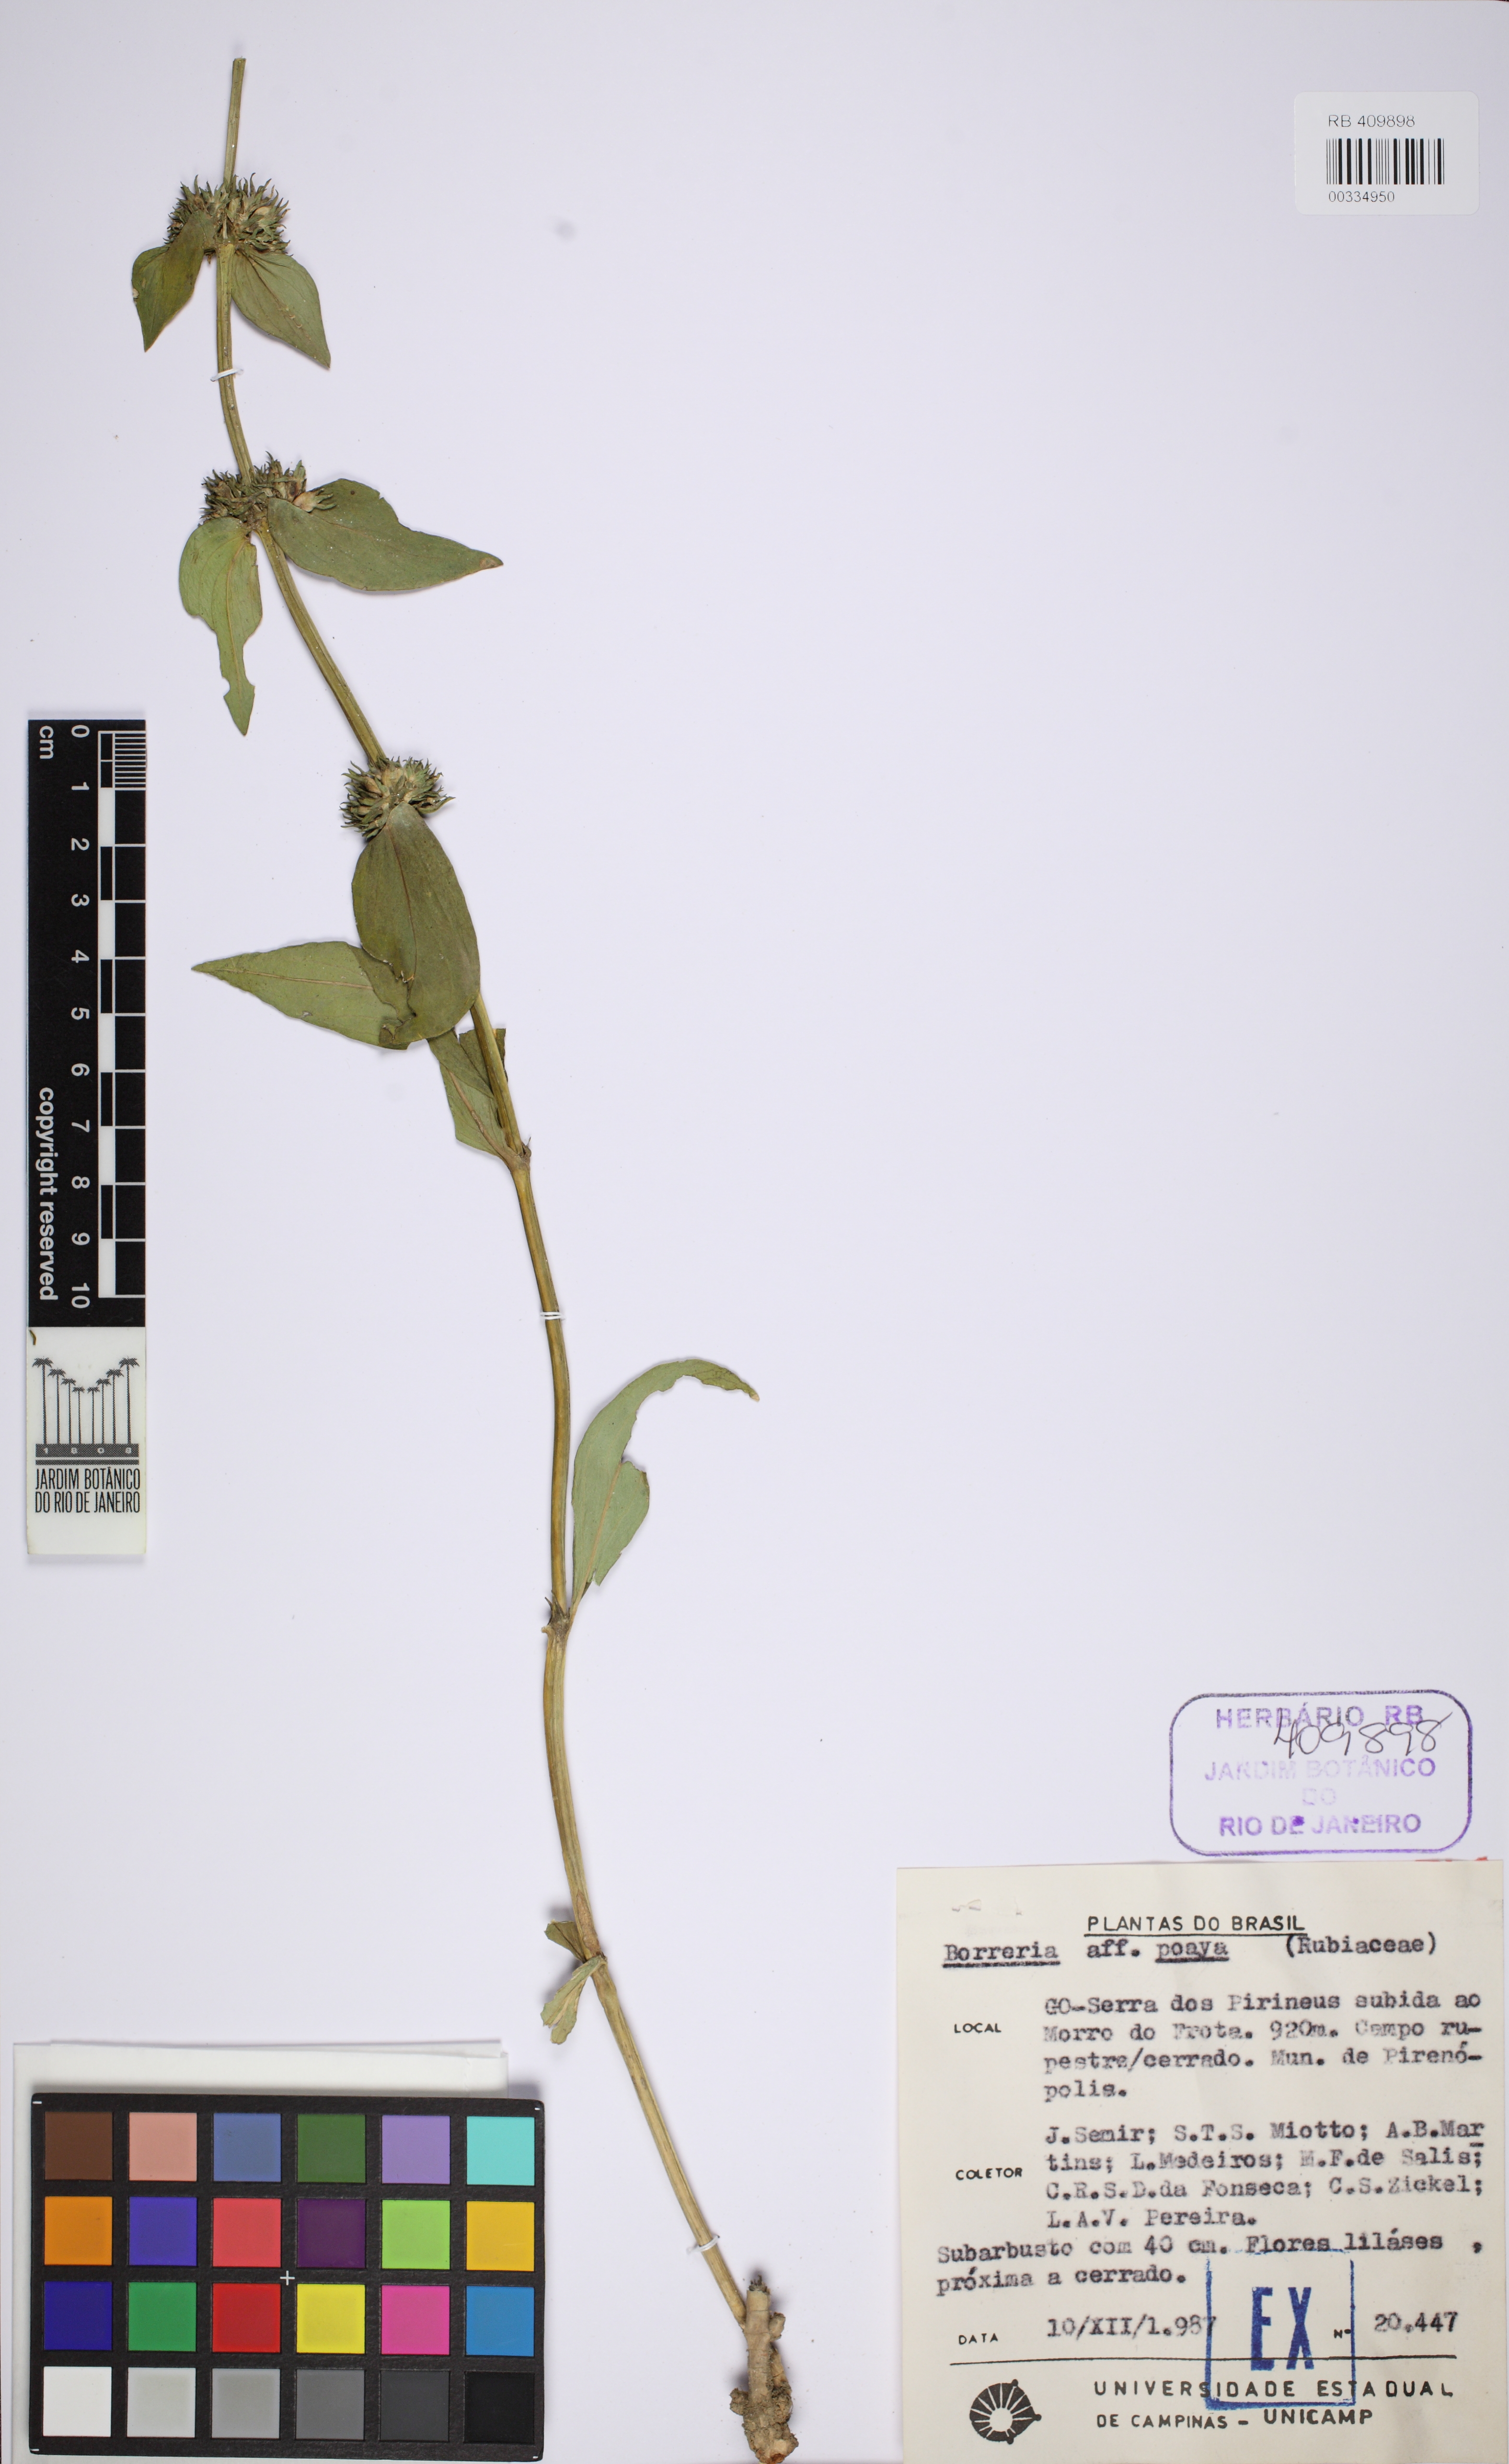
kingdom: Plantae
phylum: Tracheophyta
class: Magnoliopsida
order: Gentianales
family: Rubiaceae
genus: Spermacoce
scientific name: Spermacoce poaya
